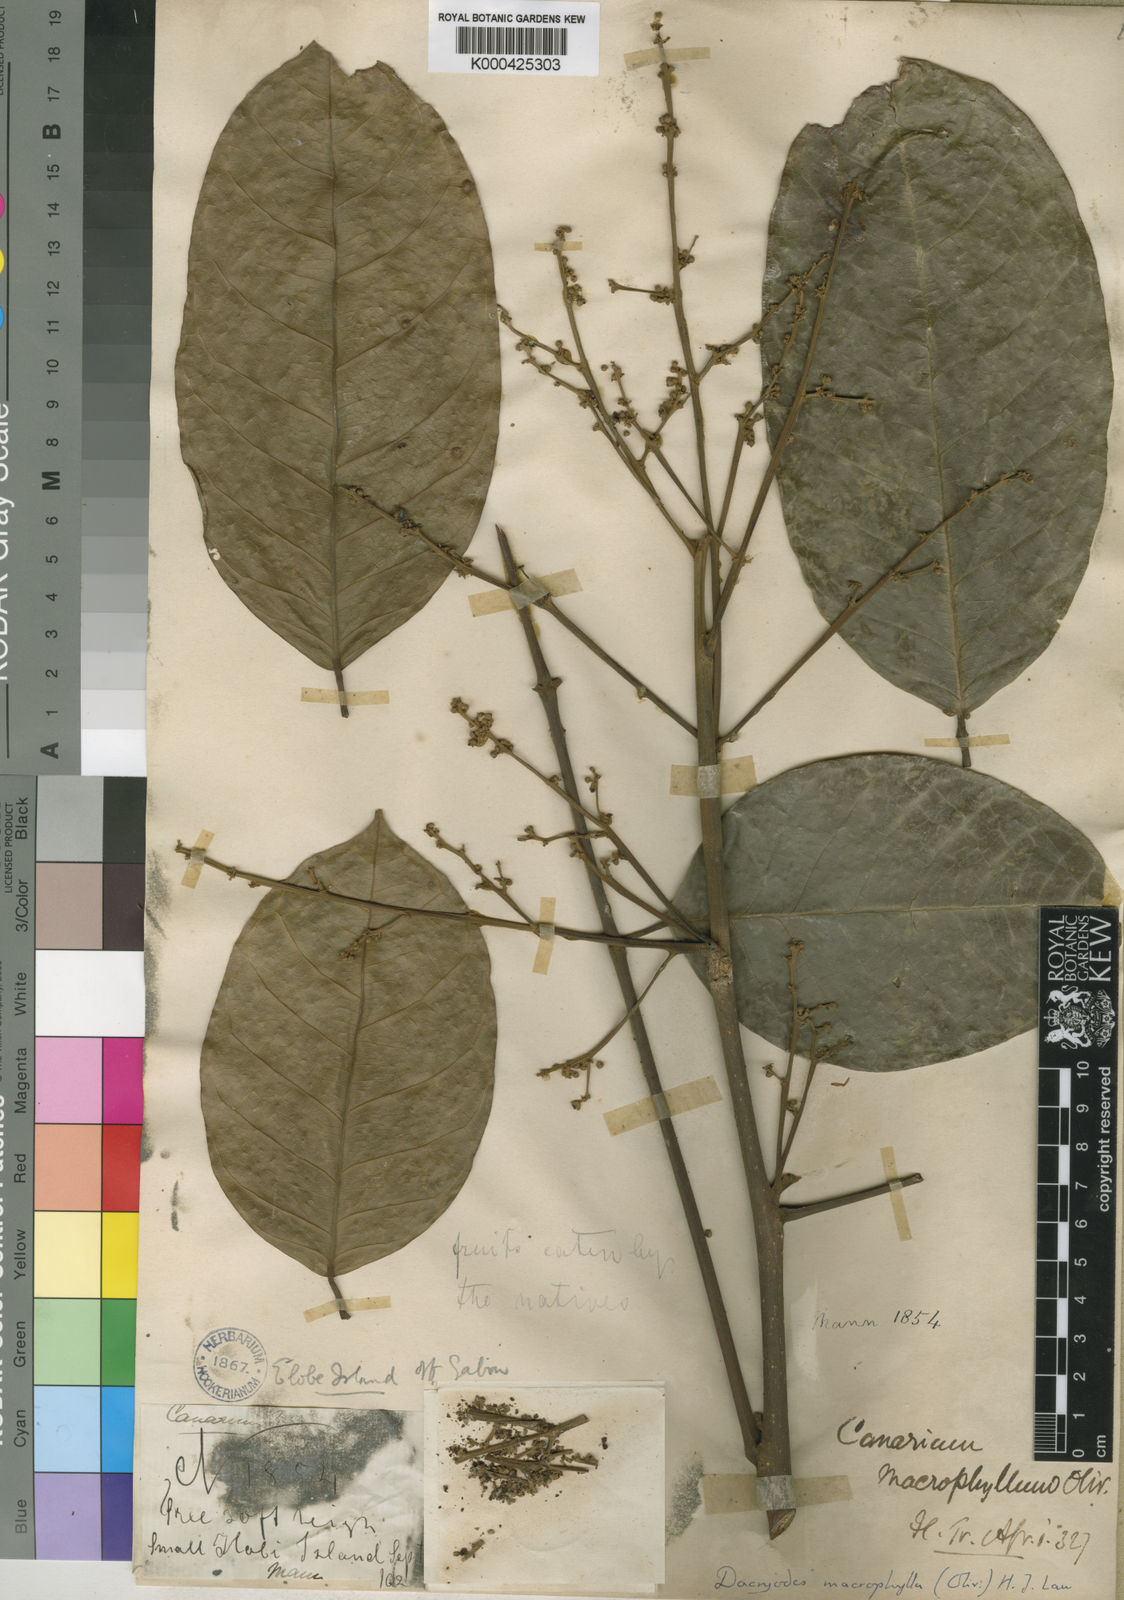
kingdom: Plantae
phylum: Tracheophyta
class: Magnoliopsida
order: Sapindales
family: Burseraceae
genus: Pachylobus
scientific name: Pachylobus macrophyllus
